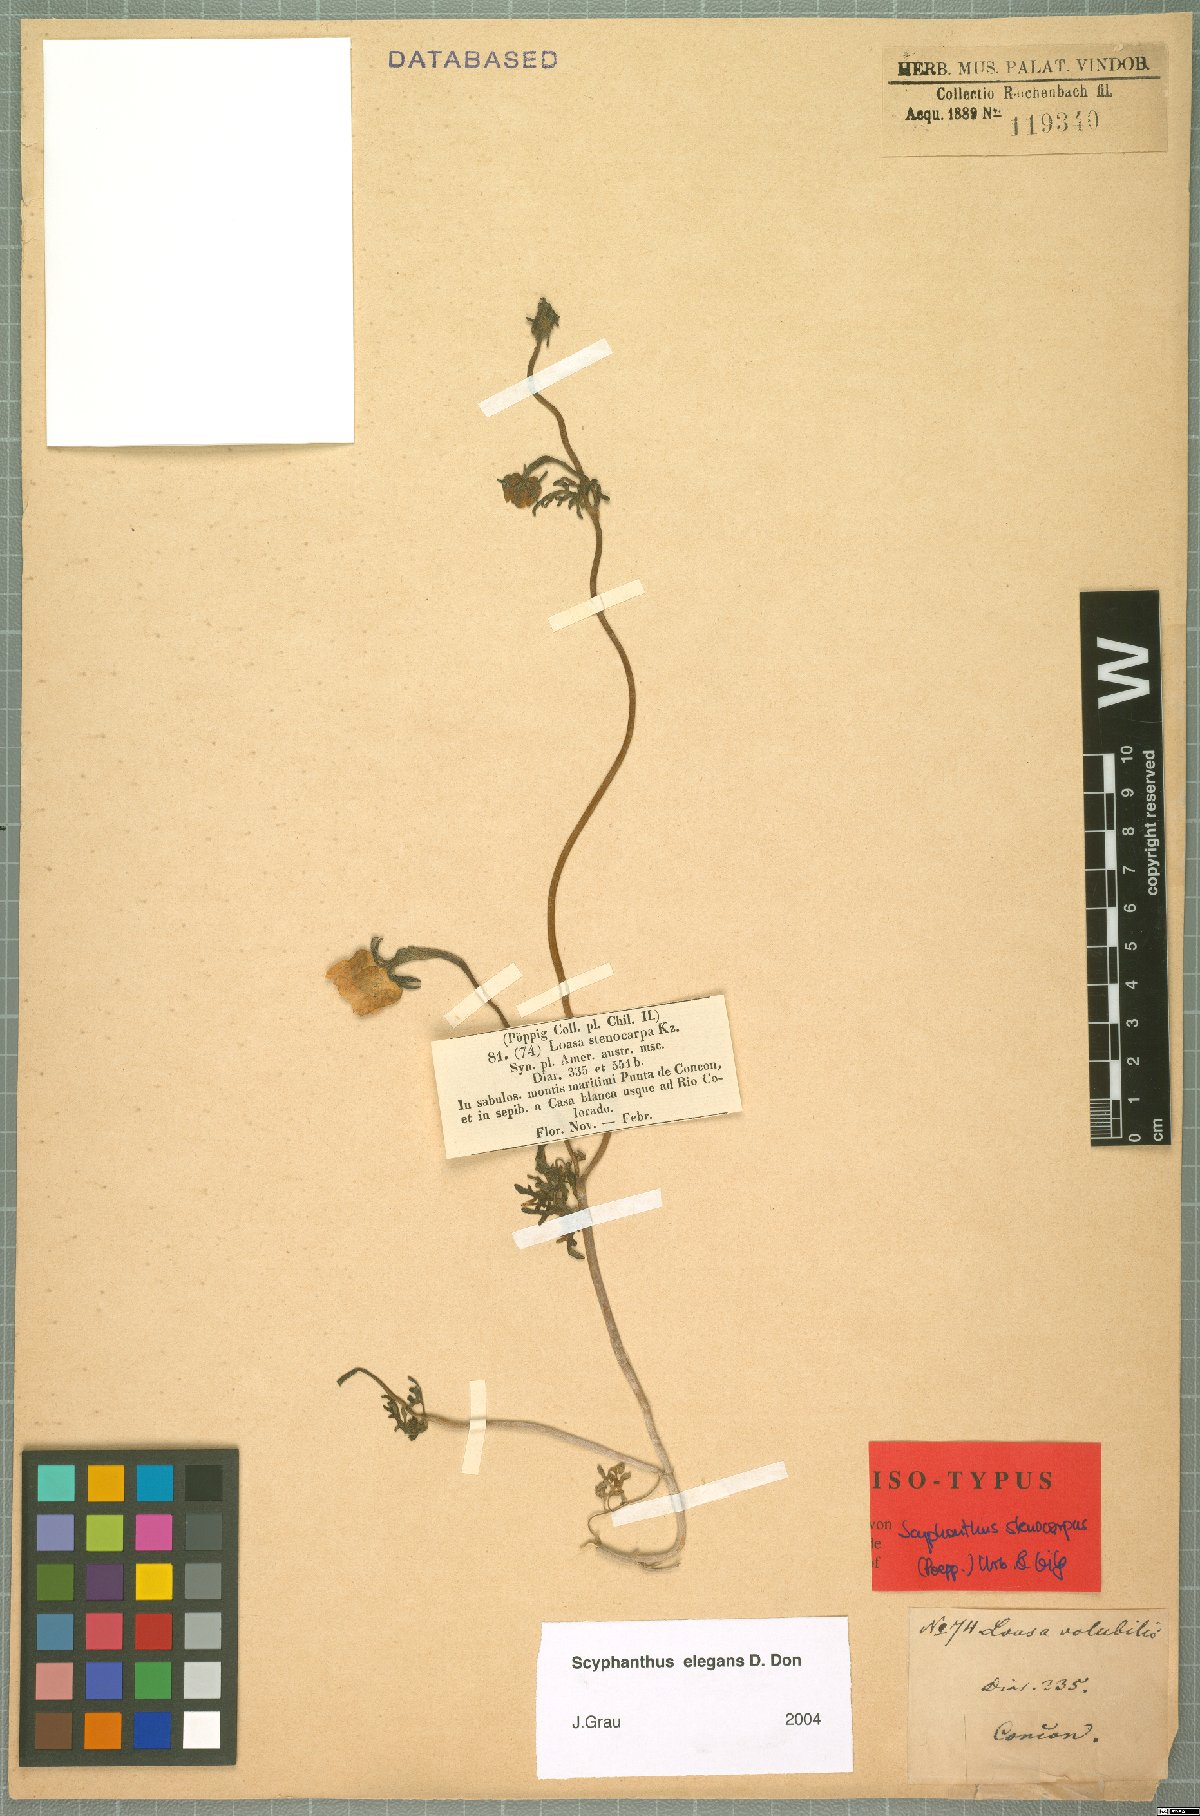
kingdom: Plantae
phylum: Tracheophyta
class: Magnoliopsida
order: Cornales
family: Loasaceae
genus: Scyphanthus
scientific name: Scyphanthus elegans
